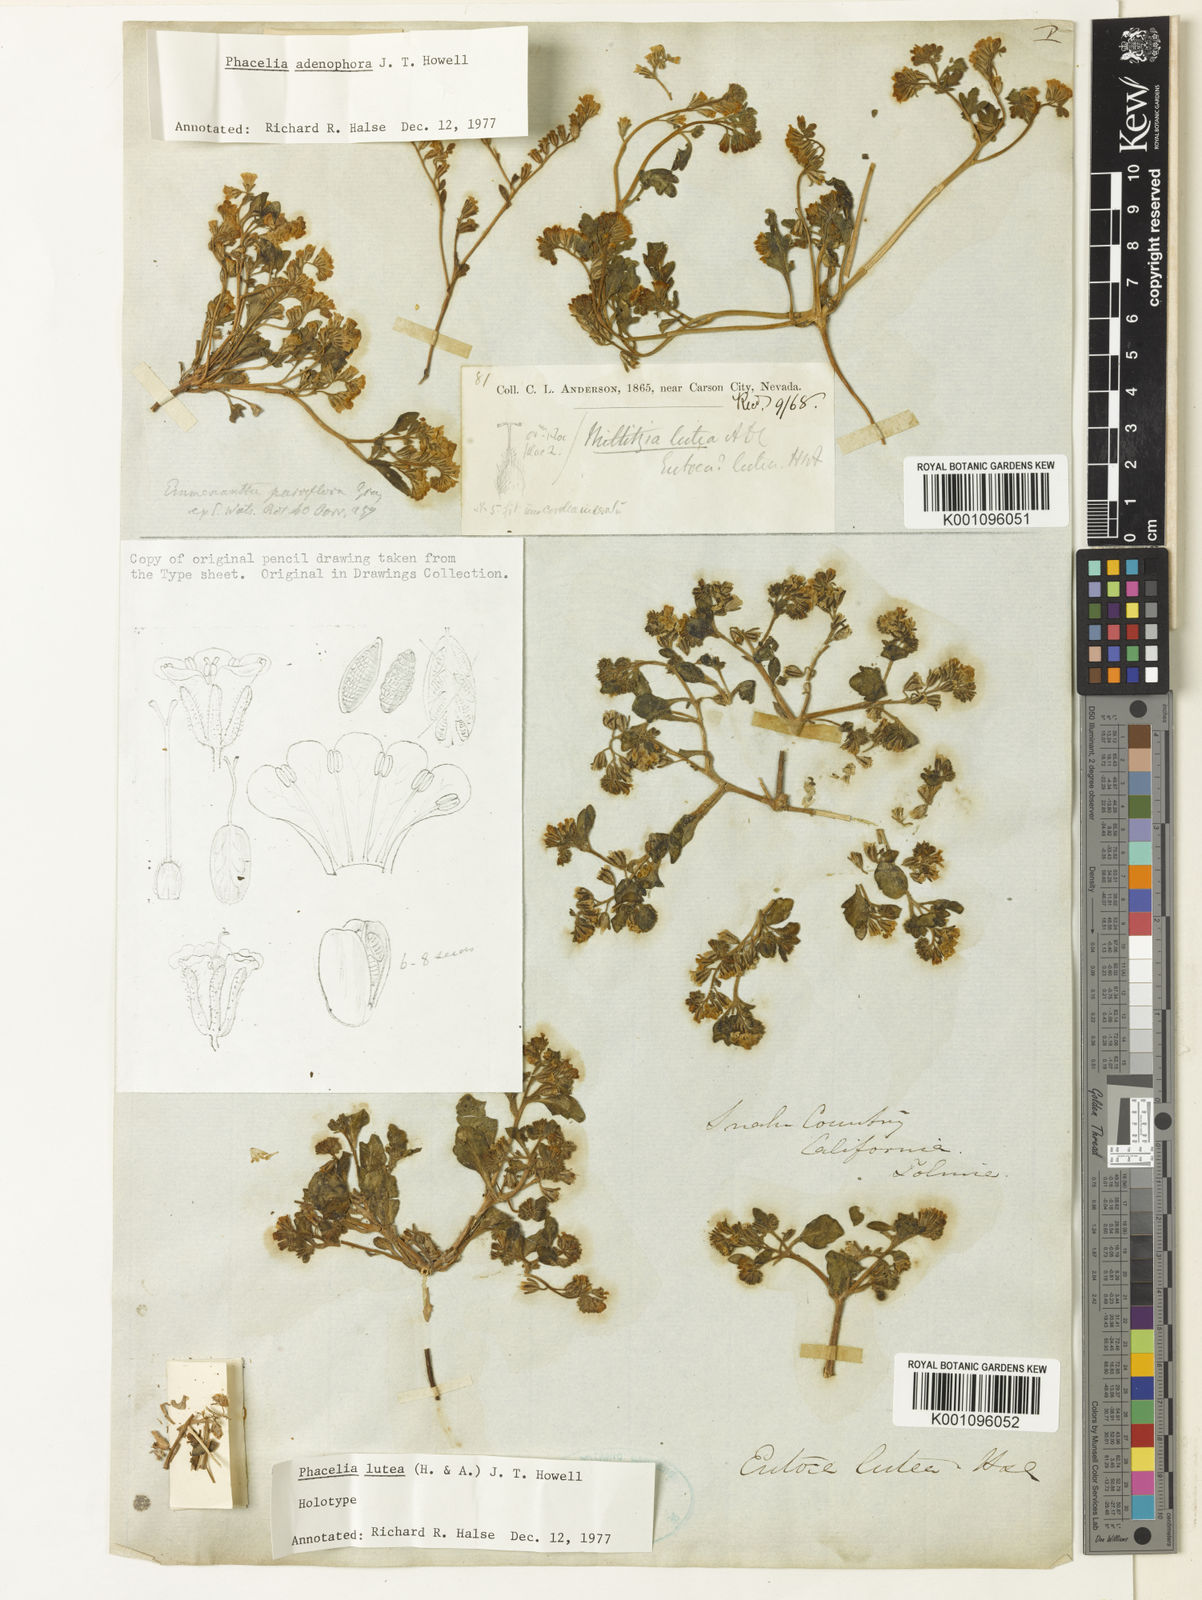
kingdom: Plantae
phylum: Tracheophyta
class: Magnoliopsida
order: Boraginales
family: Hydrophyllaceae
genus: Phacelia
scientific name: Phacelia lutea
